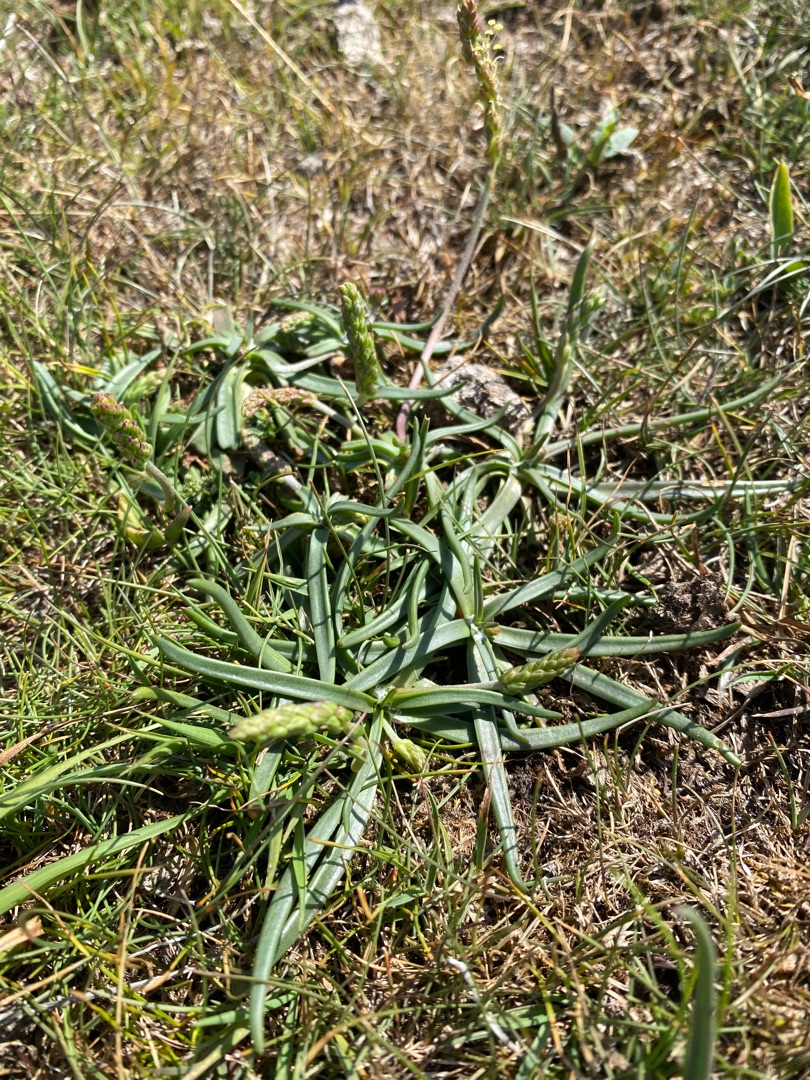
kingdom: Plantae
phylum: Tracheophyta
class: Magnoliopsida
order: Lamiales
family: Plantaginaceae
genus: Plantago
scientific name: Plantago maritima
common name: Strand-vejbred
